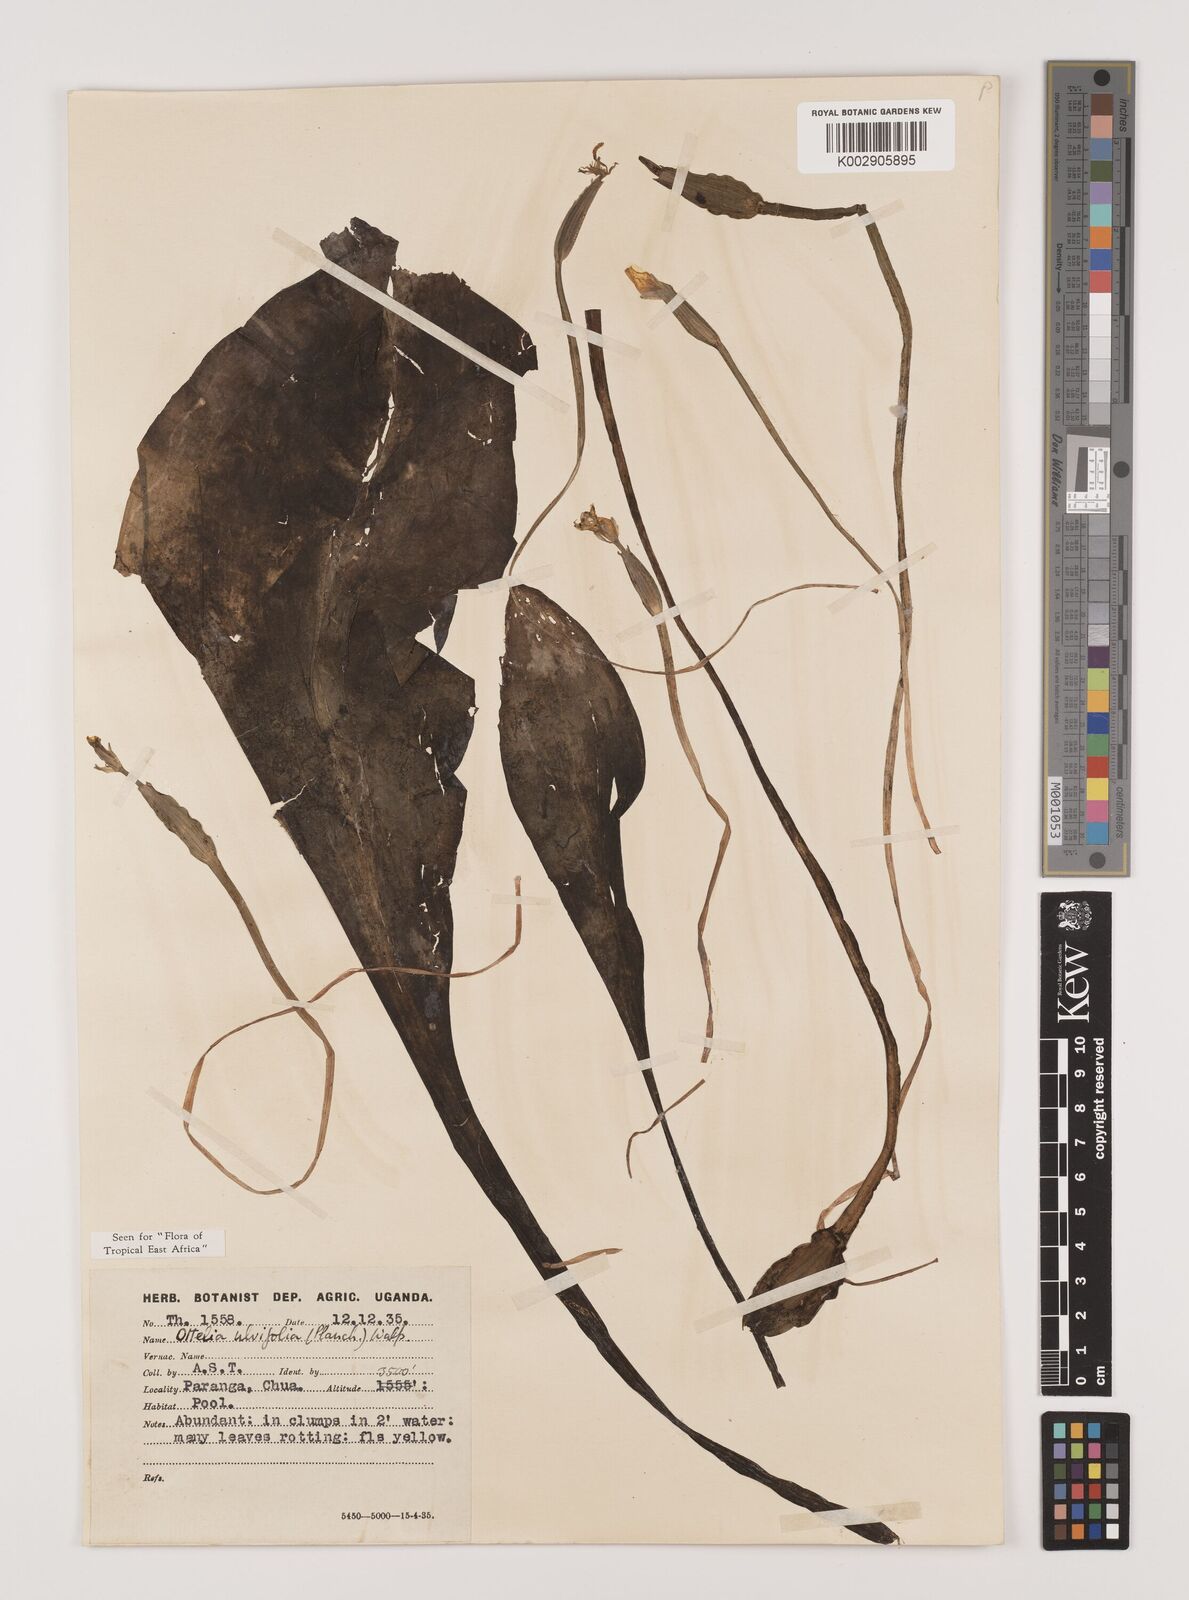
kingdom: Plantae
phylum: Tracheophyta
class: Liliopsida
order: Alismatales
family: Hydrocharitaceae
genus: Ottelia
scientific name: Ottelia ulvifolia
